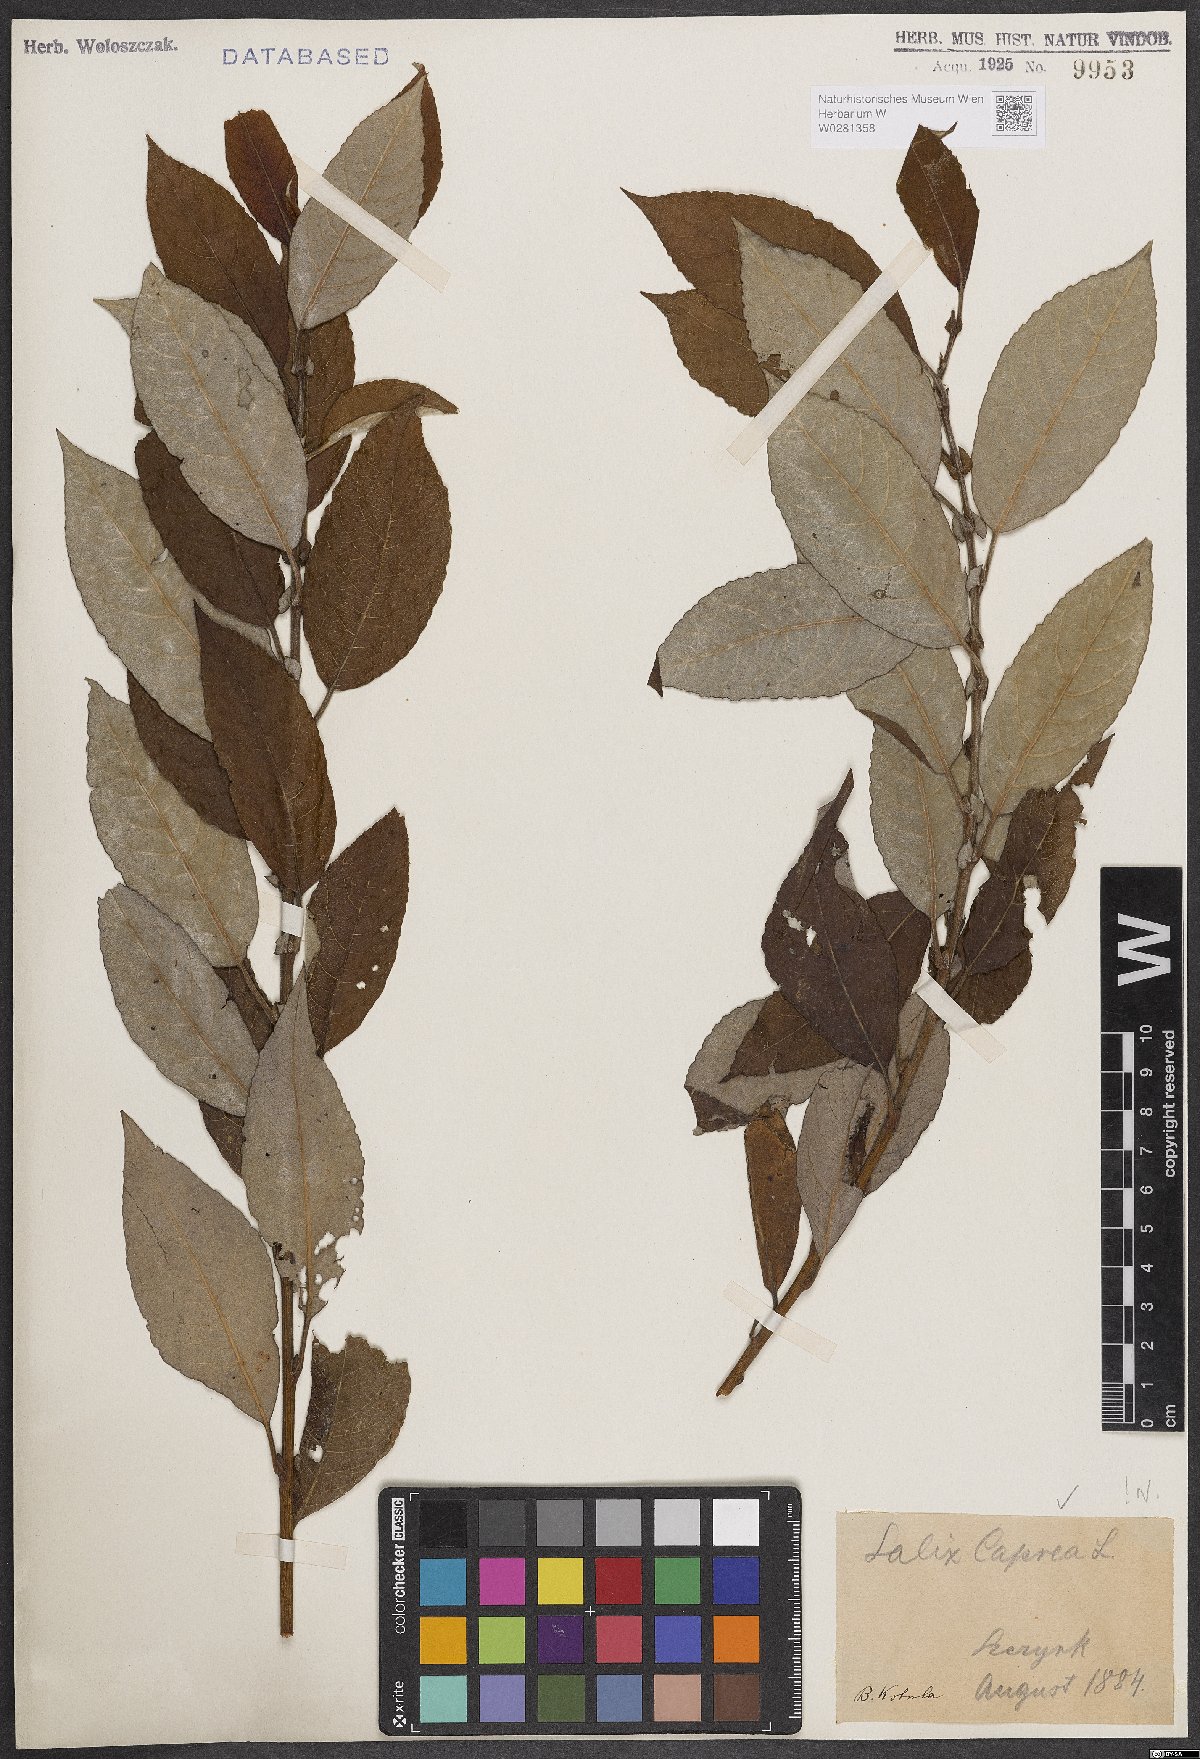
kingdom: Plantae
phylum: Tracheophyta
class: Magnoliopsida
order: Malpighiales
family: Salicaceae
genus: Salix
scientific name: Salix caprea
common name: Goat willow
